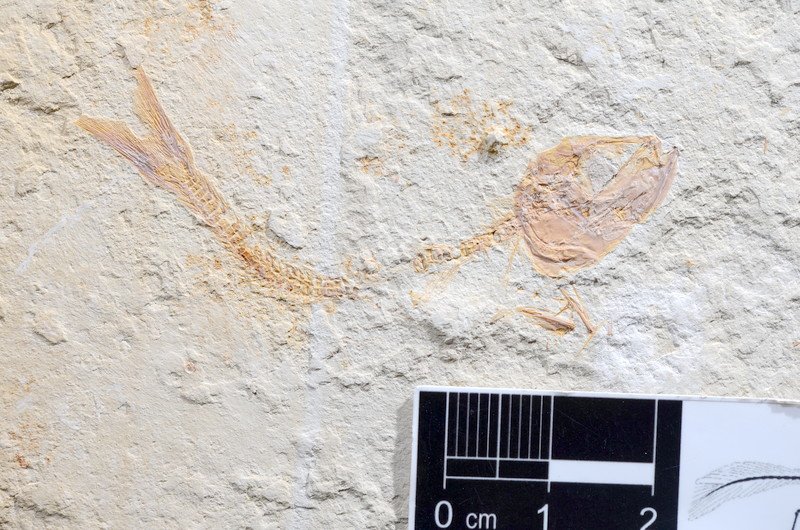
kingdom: Animalia
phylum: Chordata
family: Ascalaboidae
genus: Tharsis
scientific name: Tharsis
